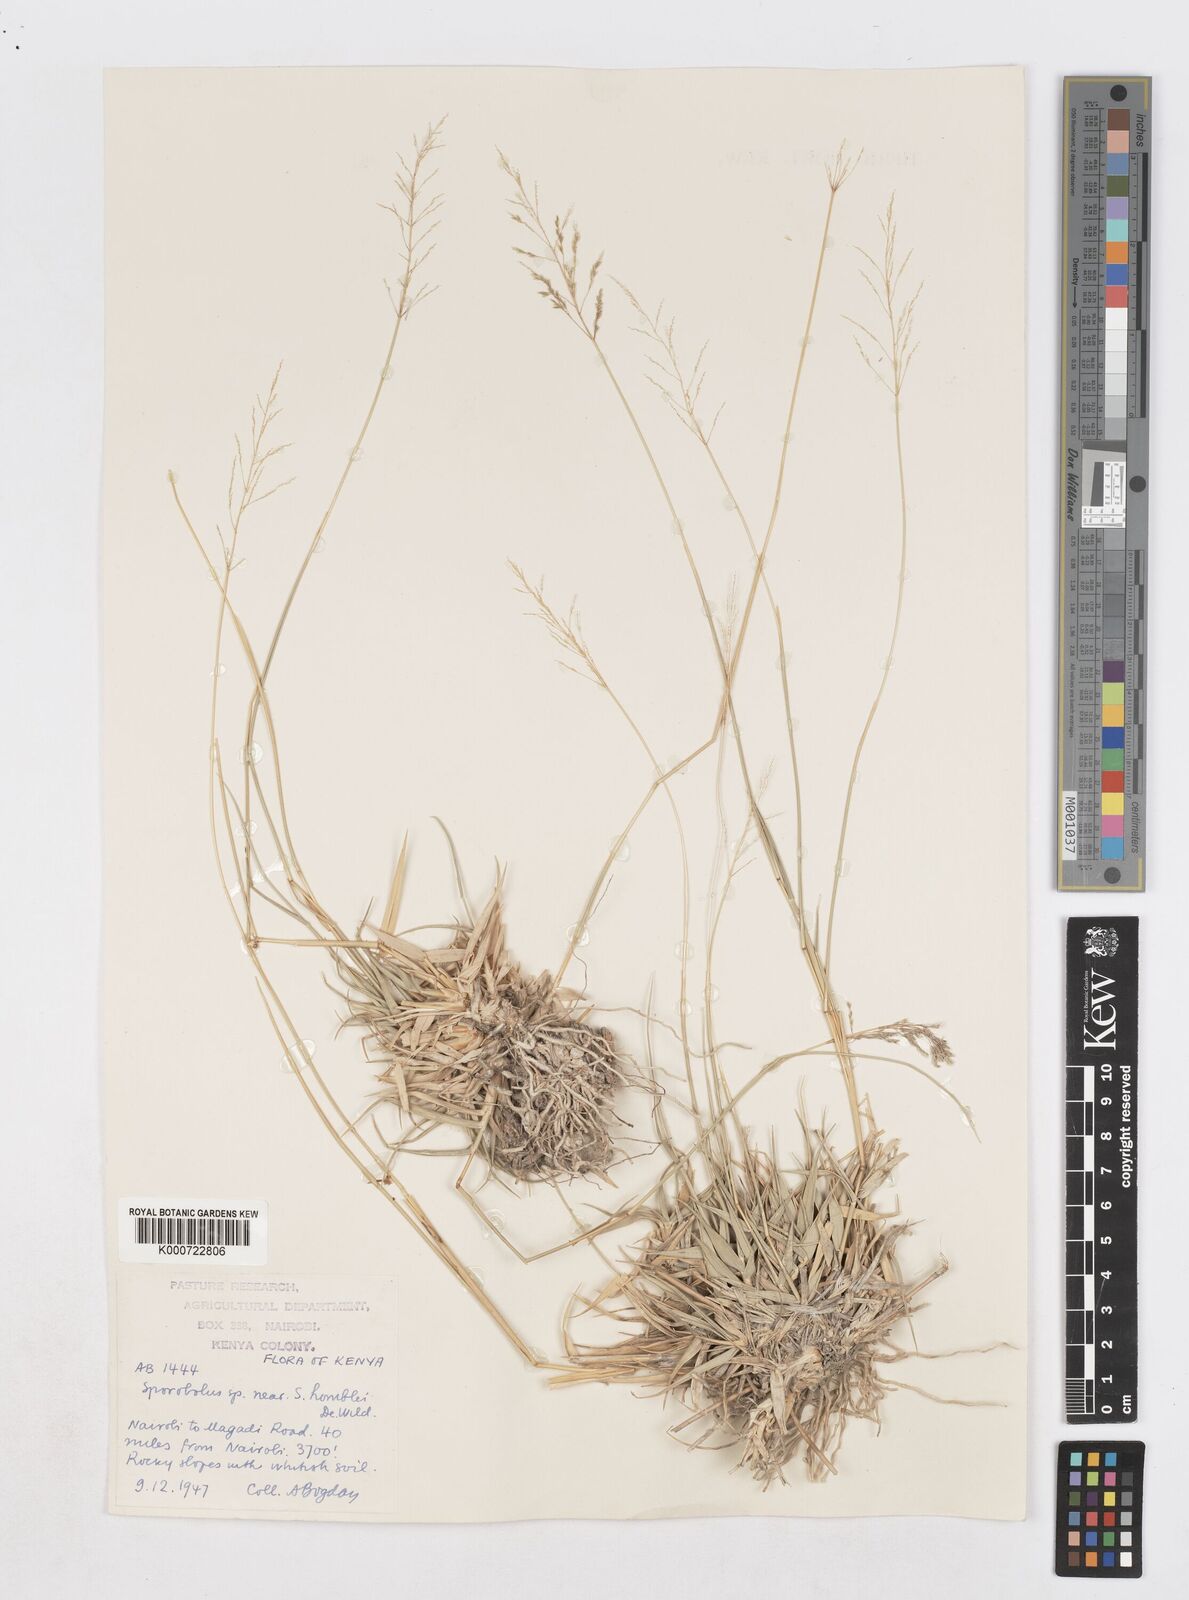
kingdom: Plantae
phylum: Tracheophyta
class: Liliopsida
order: Poales
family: Poaceae
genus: Sporobolus
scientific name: Sporobolus ioclados
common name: Pan dropseed
